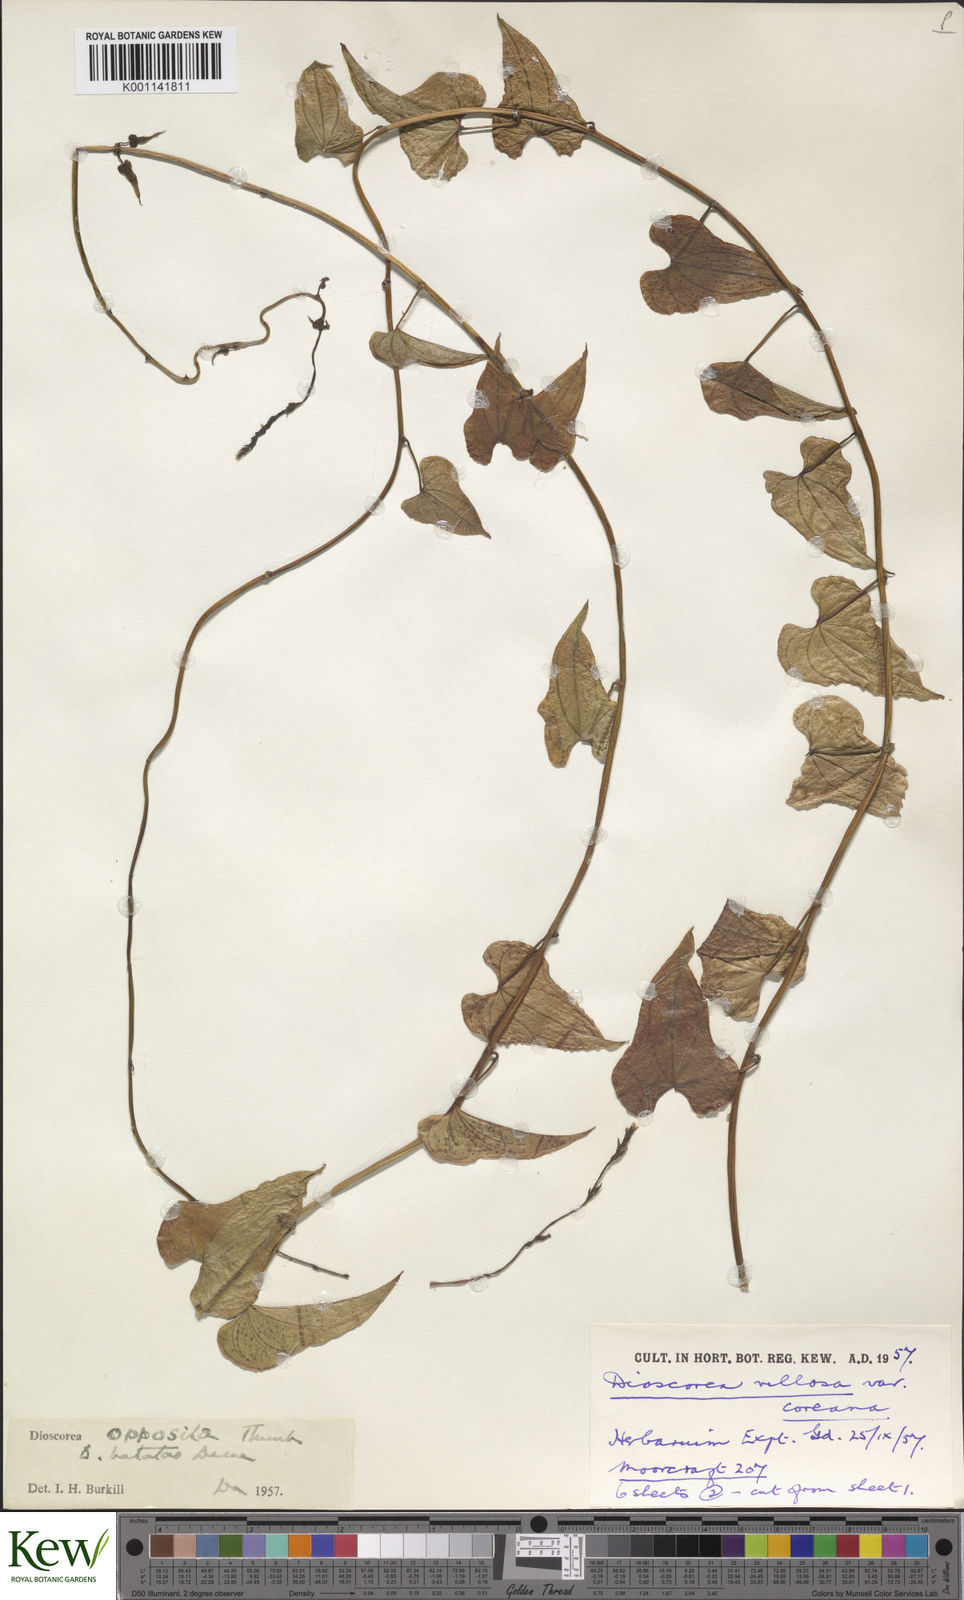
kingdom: Plantae
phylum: Tracheophyta
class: Liliopsida
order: Dioscoreales
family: Dioscoreaceae
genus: Dioscorea
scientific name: Dioscorea oppositifolia
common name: Chinese yam
